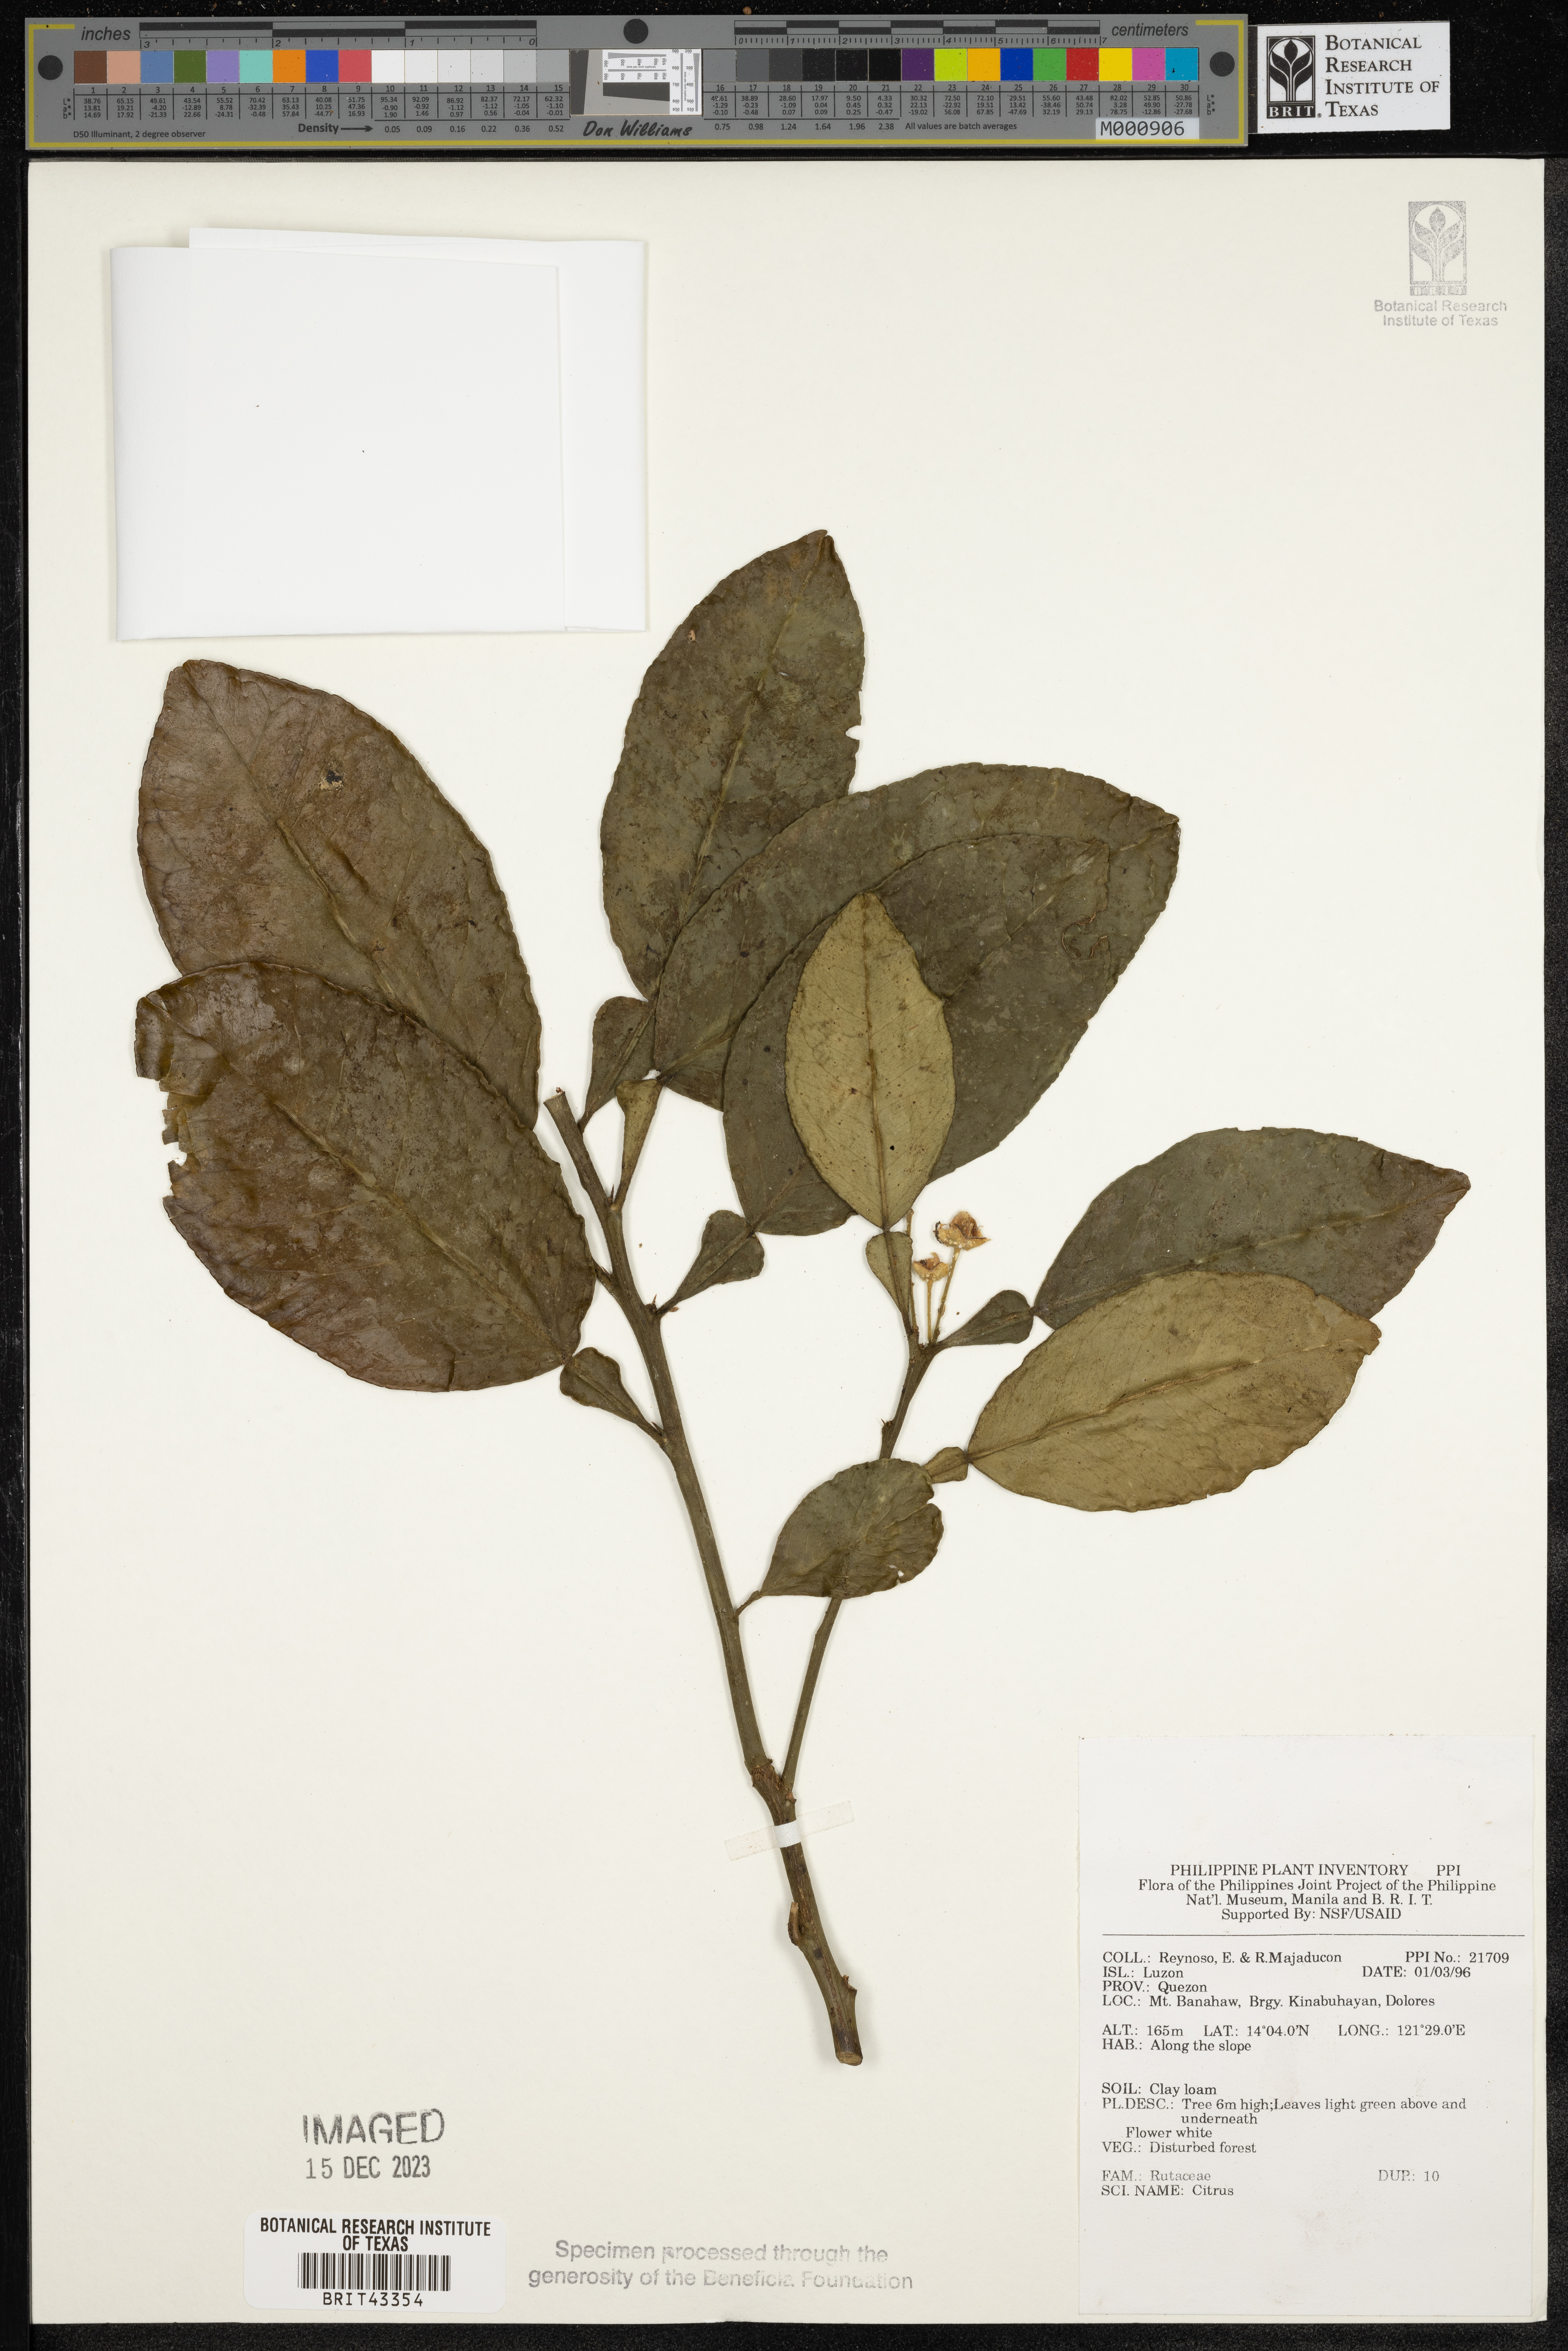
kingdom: Plantae
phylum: Tracheophyta
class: Magnoliopsida
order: Sapindales
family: Rutaceae
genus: Citrus
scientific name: Citrus
